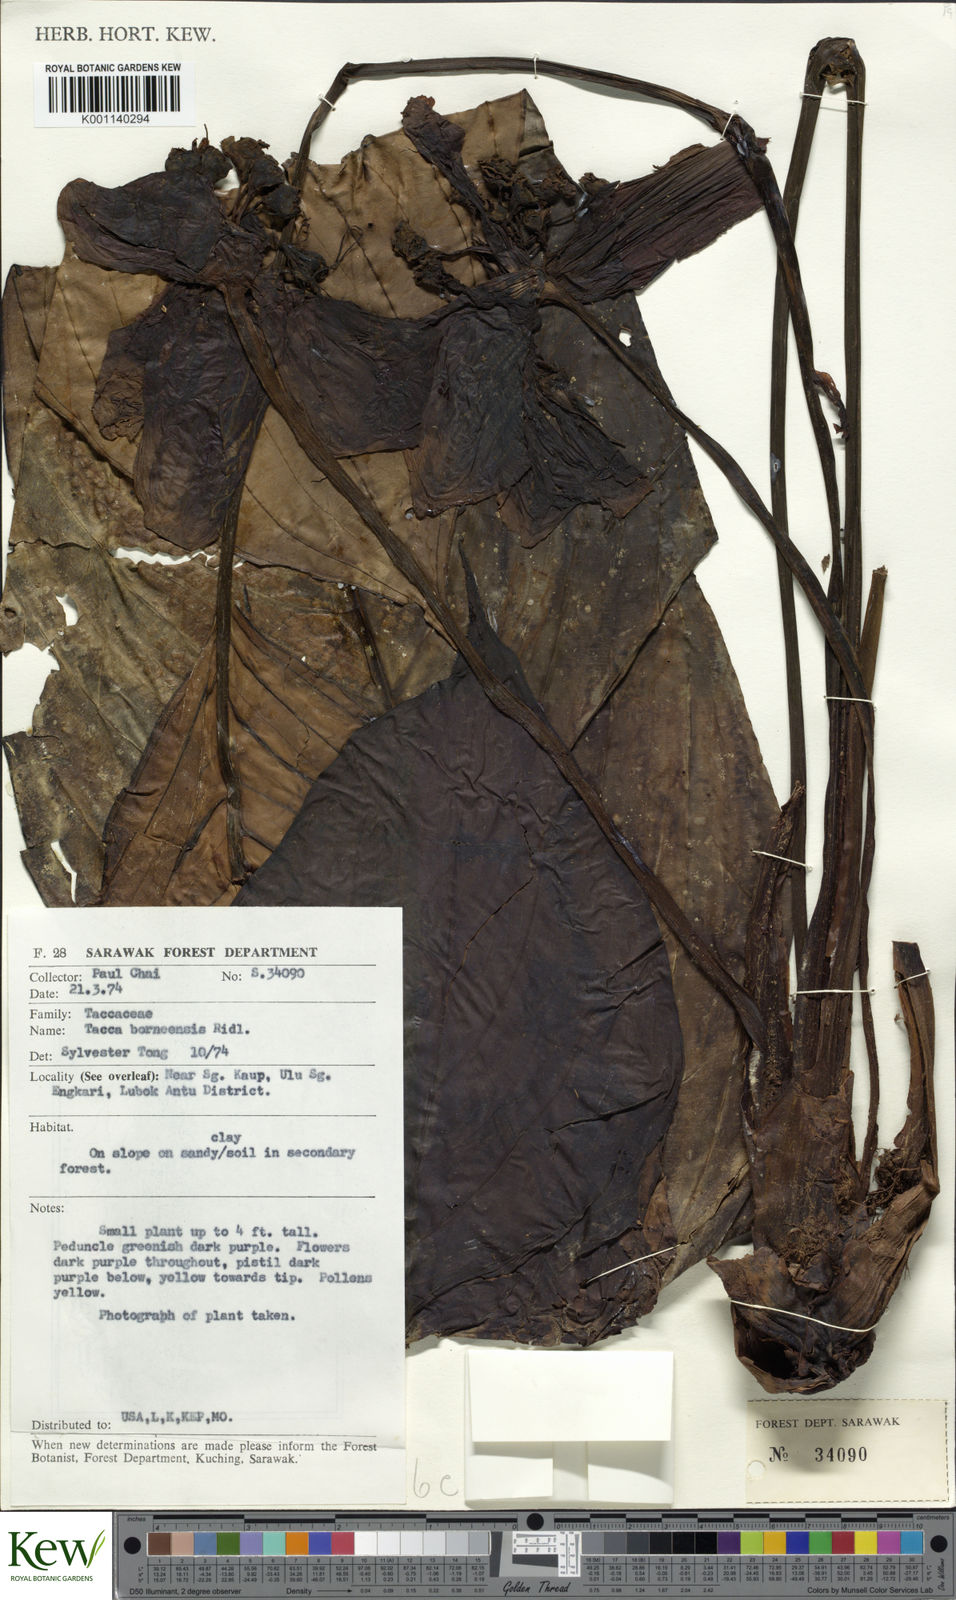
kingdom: Plantae
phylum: Tracheophyta
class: Liliopsida
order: Dioscoreales
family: Dioscoreaceae
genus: Tacca
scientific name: Tacca integrifolia
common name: Batplant
